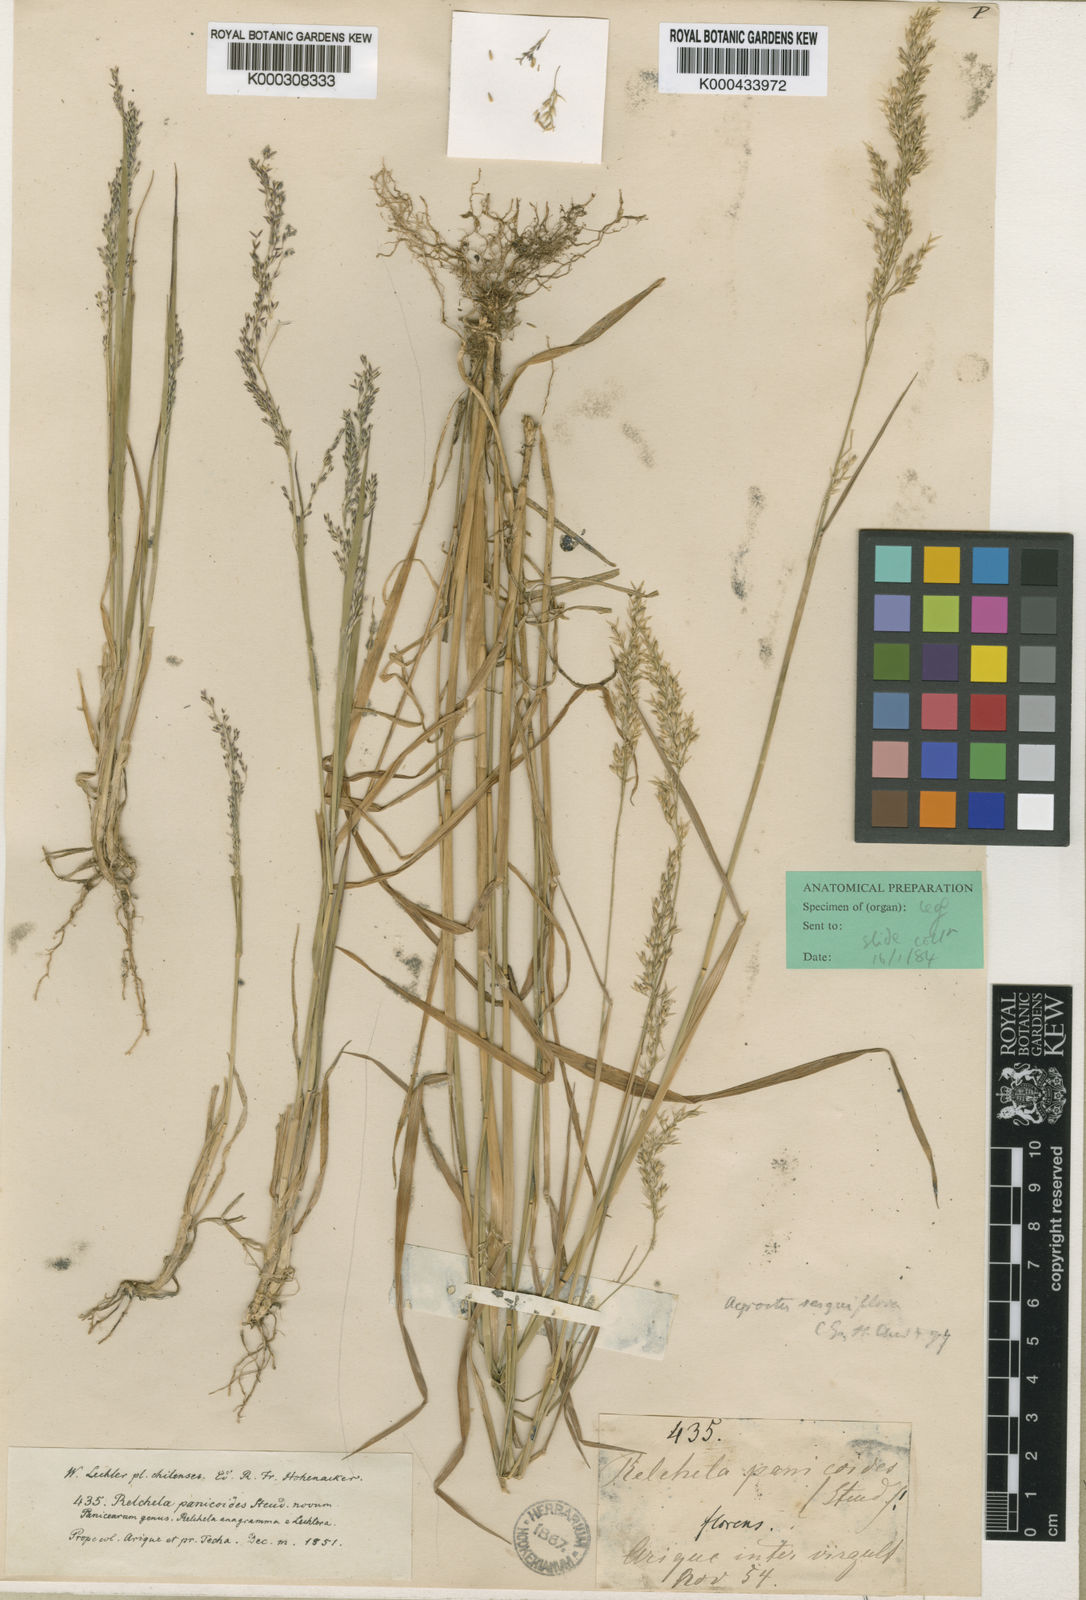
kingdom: Plantae
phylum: Tracheophyta
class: Liliopsida
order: Poales
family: Poaceae
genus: Relchela
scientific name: Relchela panicoides
